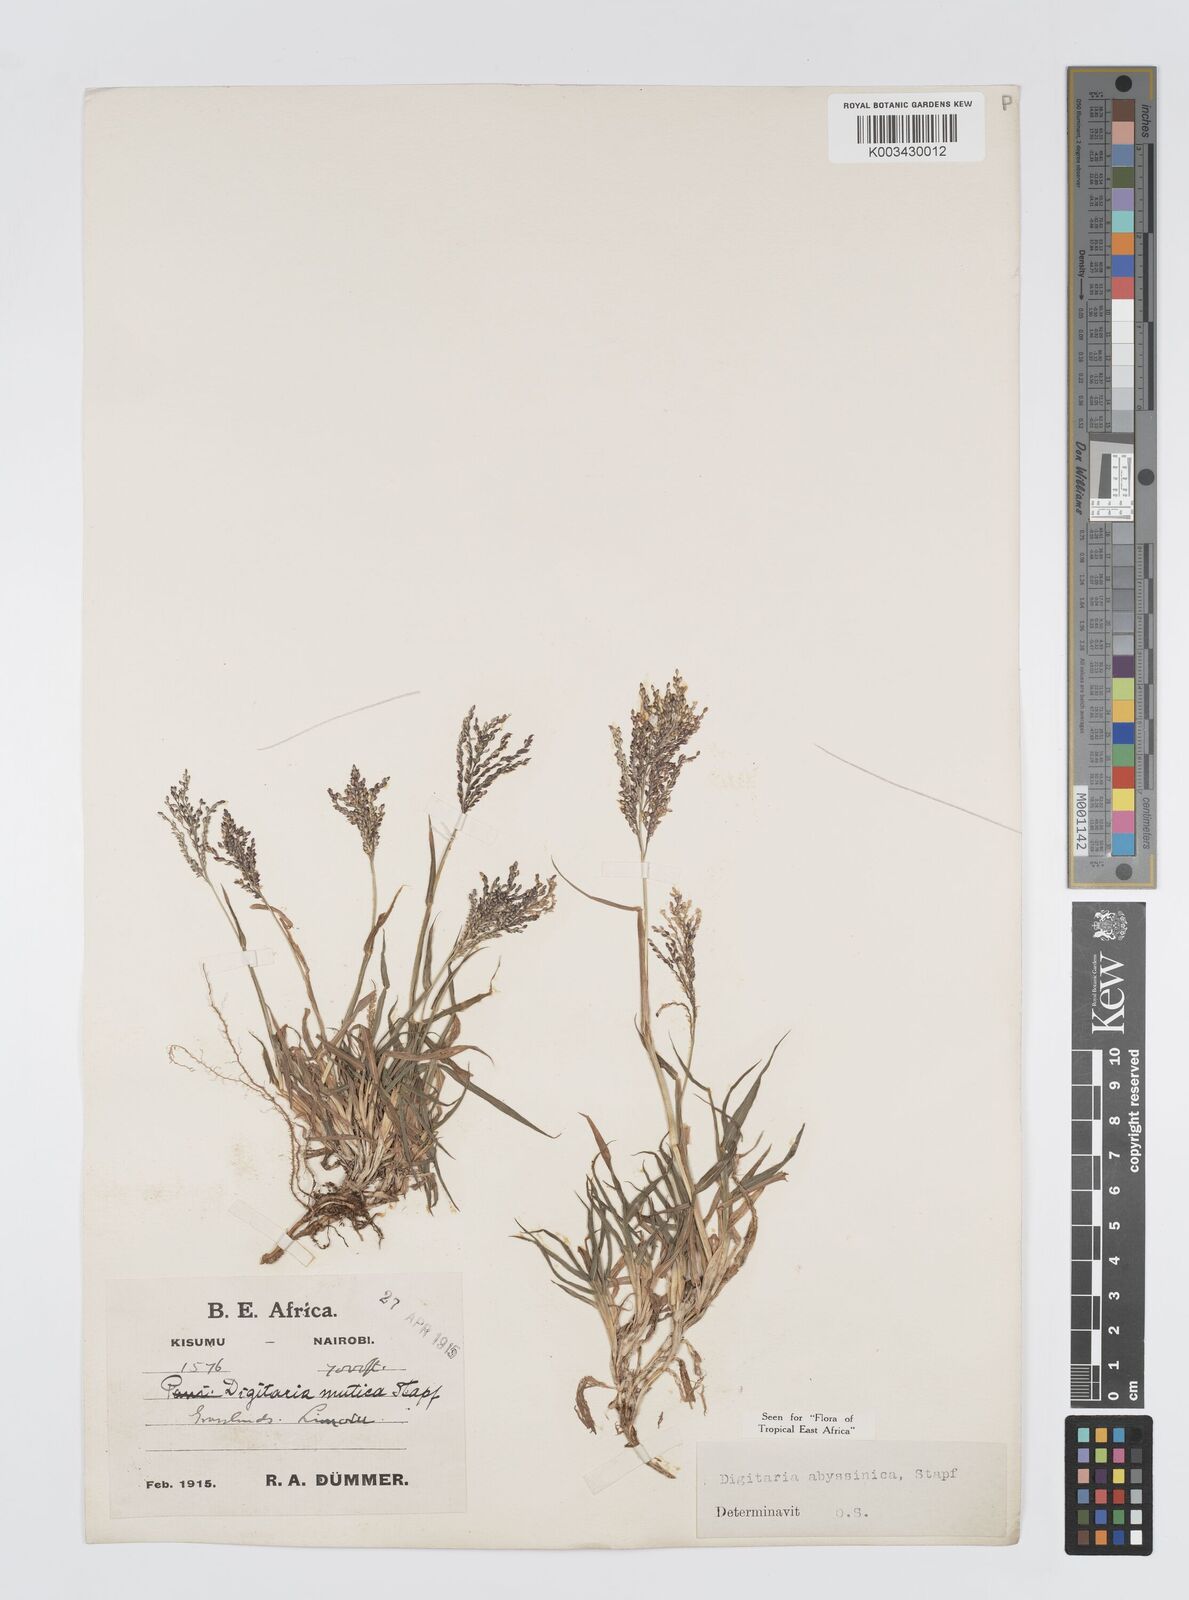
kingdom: Plantae
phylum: Tracheophyta
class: Liliopsida
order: Poales
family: Poaceae
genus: Digitaria
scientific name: Digitaria abyssinica
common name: African couchgrass
